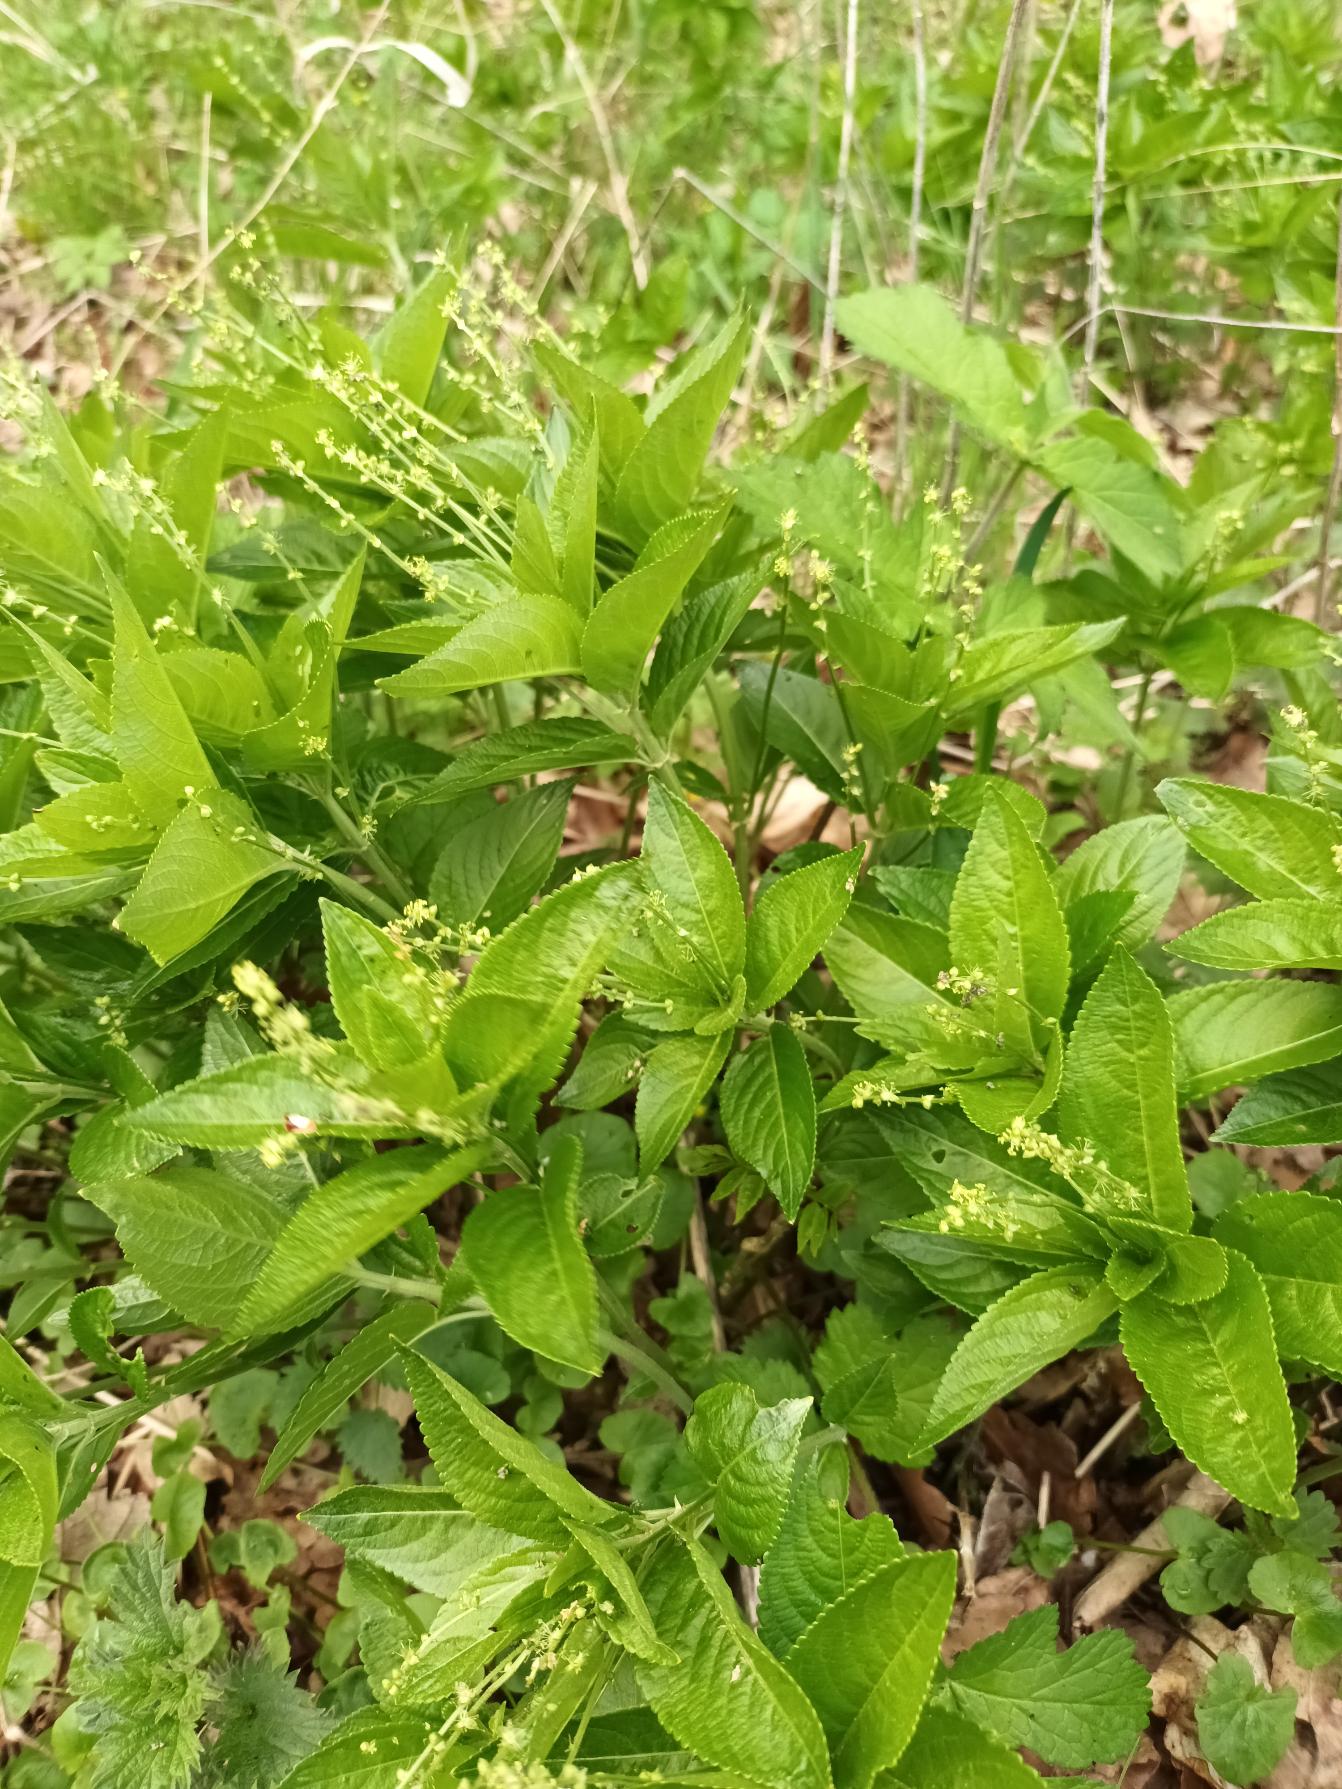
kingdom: Plantae
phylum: Tracheophyta
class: Magnoliopsida
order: Malpighiales
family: Euphorbiaceae
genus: Mercurialis
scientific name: Mercurialis perennis
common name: Almindelig bingelurt
